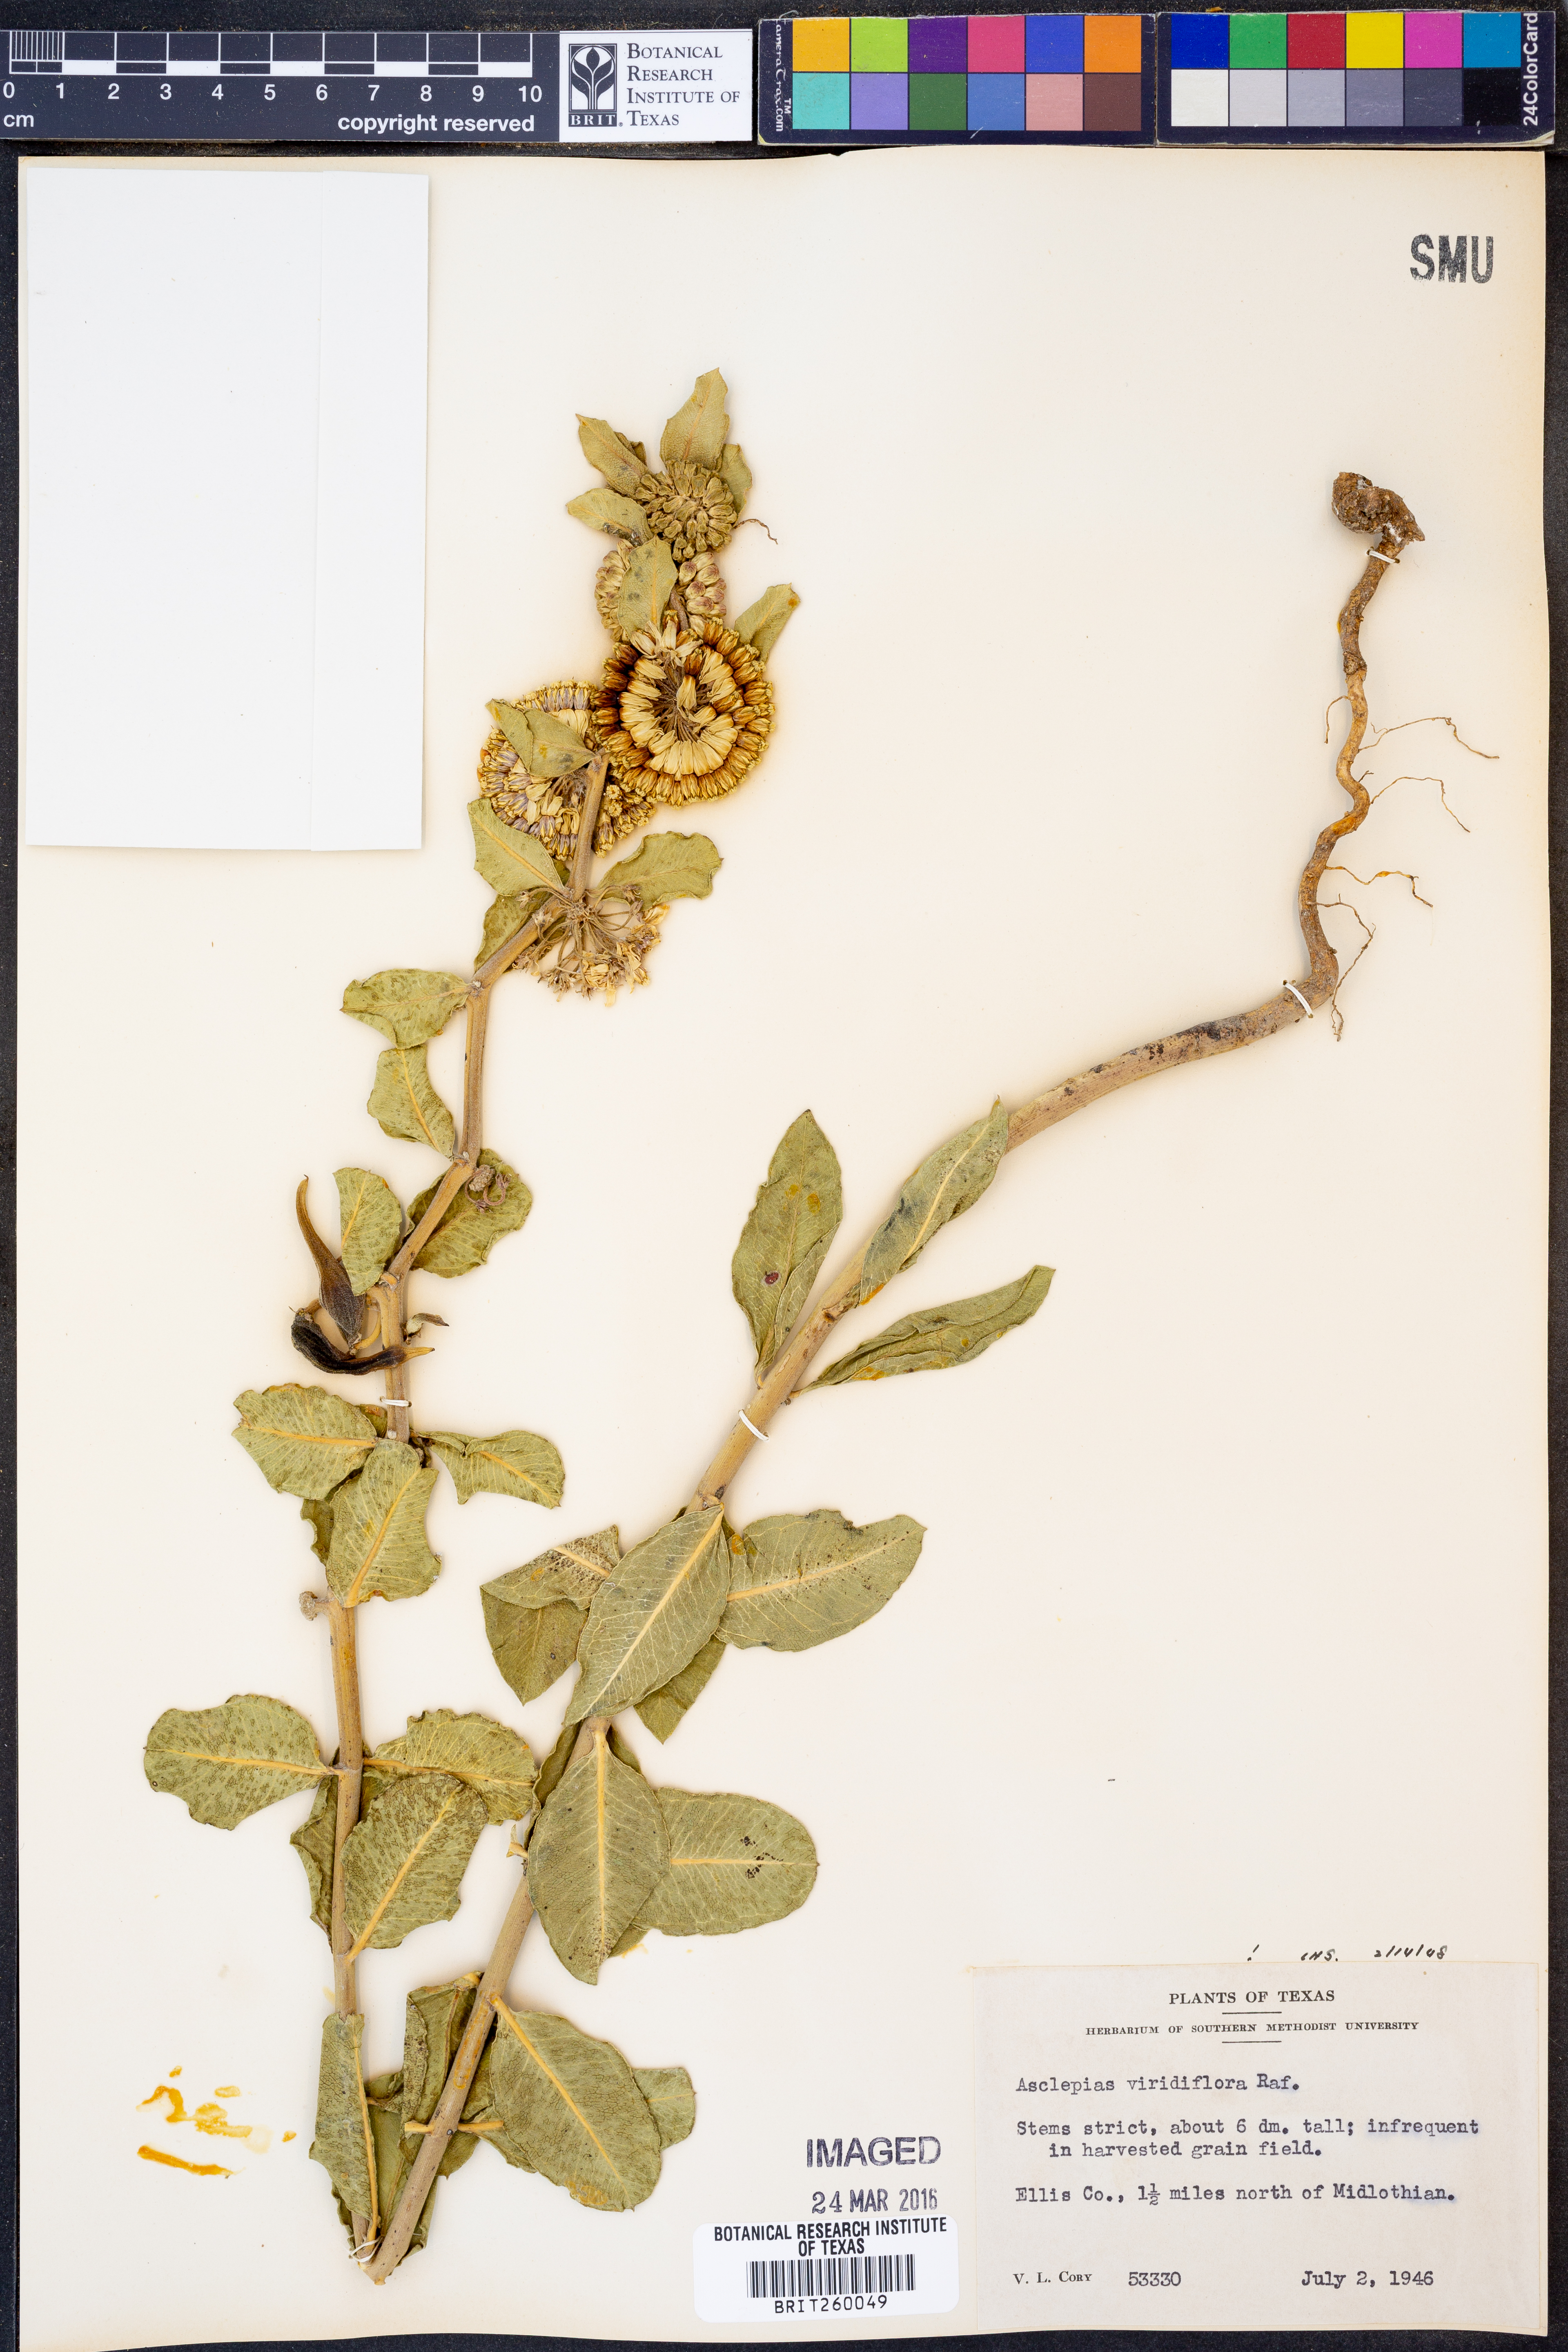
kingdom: Plantae
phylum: Tracheophyta
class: Magnoliopsida
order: Gentianales
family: Apocynaceae
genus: Asclepias
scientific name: Asclepias viridiflora
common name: Green comet milkweed
